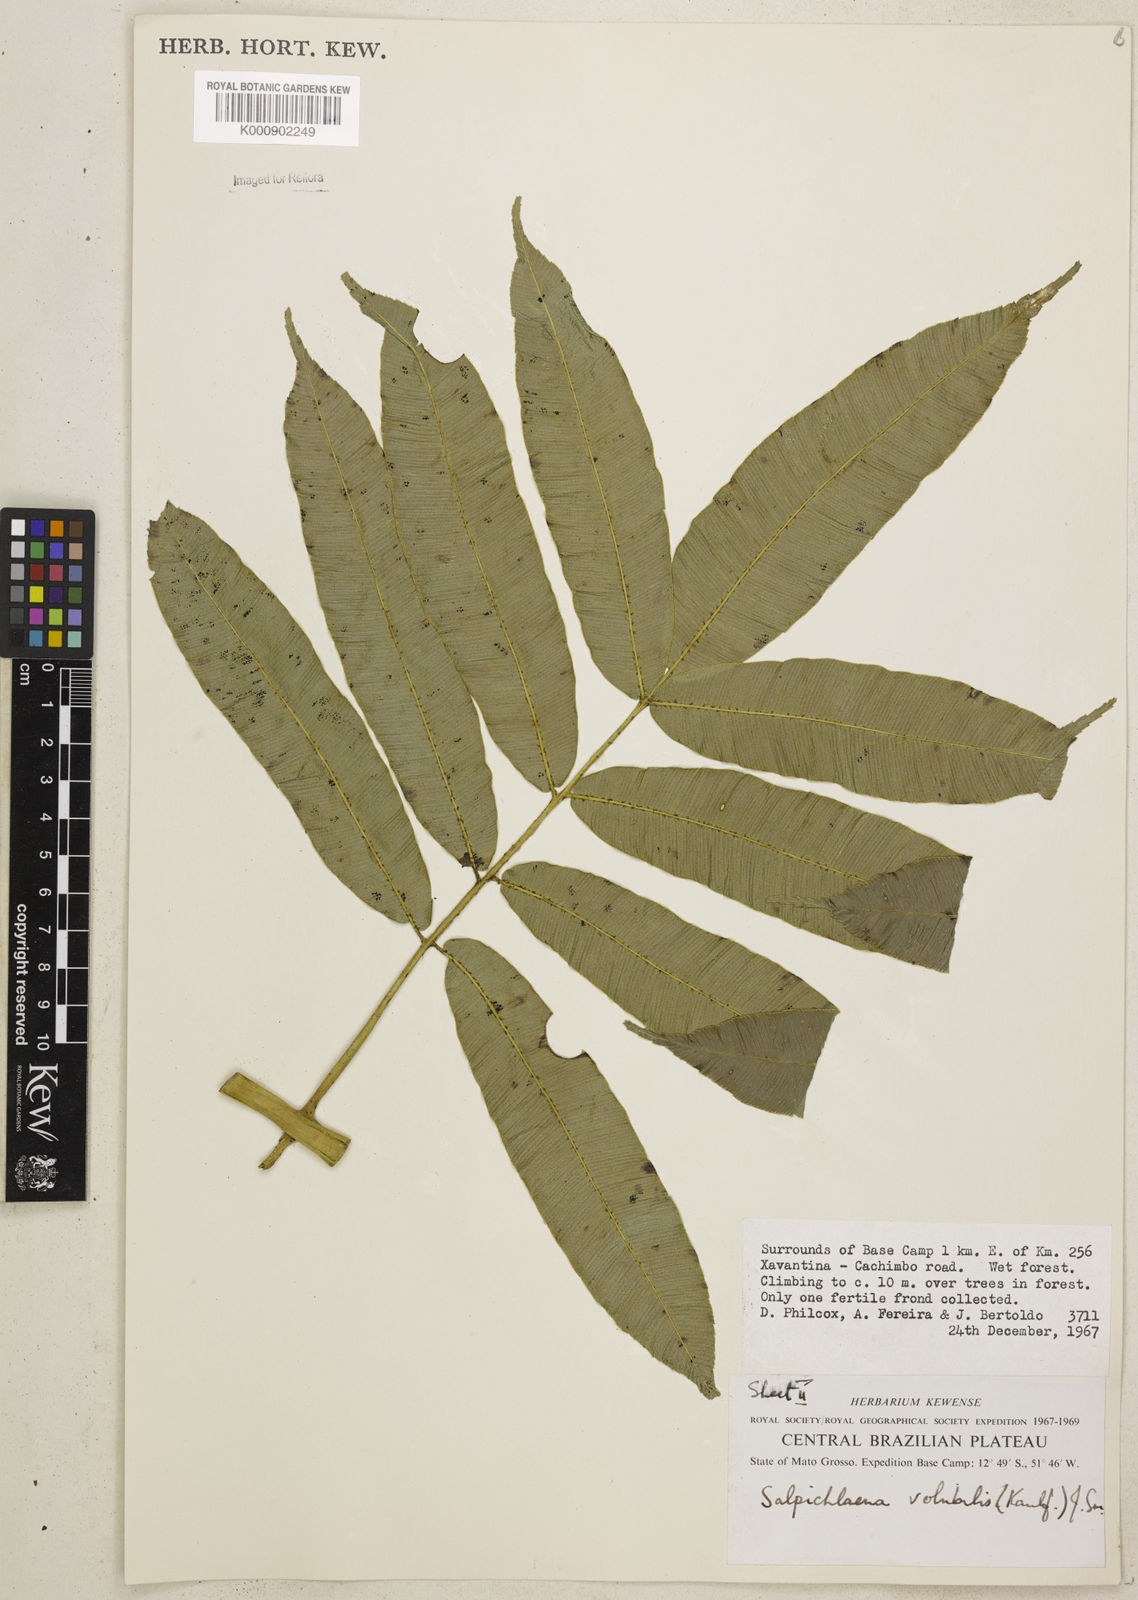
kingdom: Plantae
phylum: Tracheophyta
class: Polypodiopsida
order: Polypodiales
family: Blechnaceae
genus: Salpichlaena
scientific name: Salpichlaena volubilis
